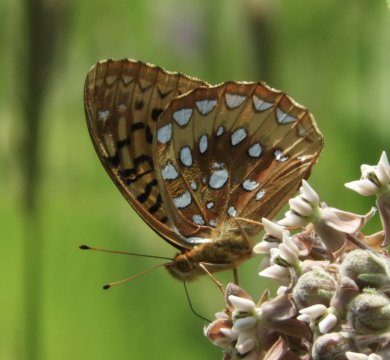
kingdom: Animalia
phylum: Arthropoda
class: Insecta
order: Lepidoptera
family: Nymphalidae
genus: Speyeria
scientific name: Speyeria cybele
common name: Great Spangled Fritillary
